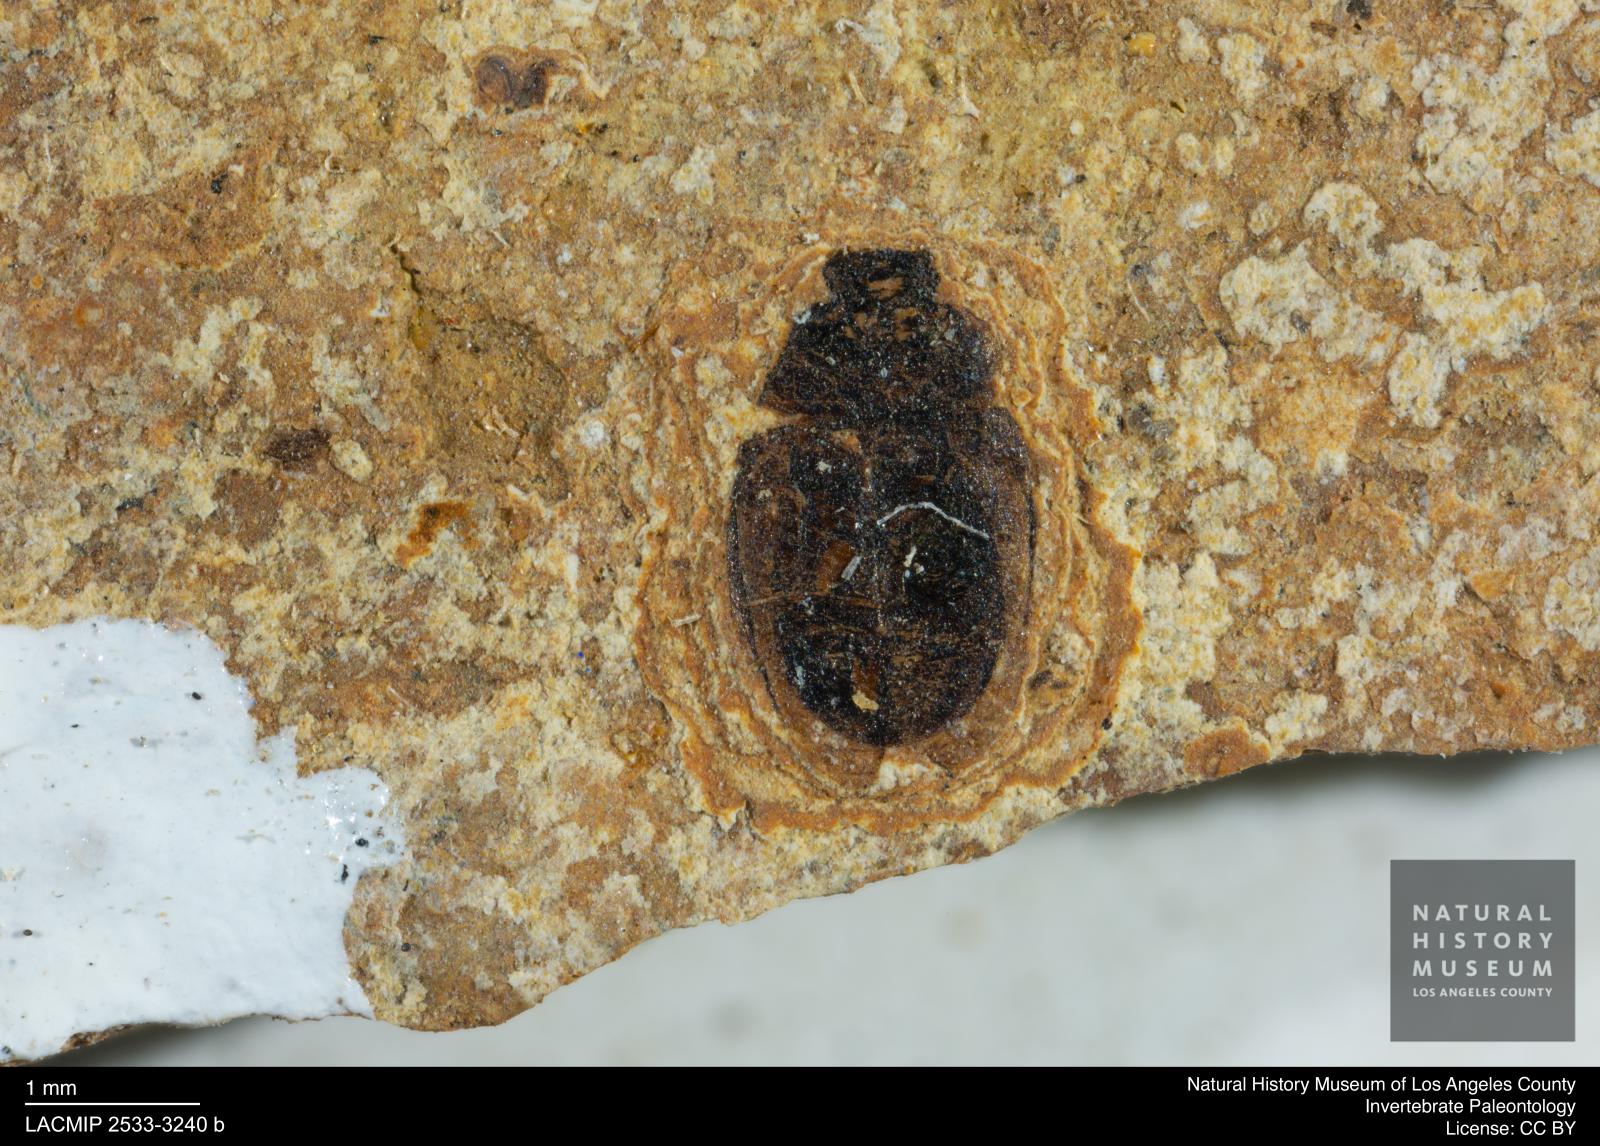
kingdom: Animalia
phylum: Arthropoda
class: Insecta
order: Coleoptera
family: Hydrophilidae
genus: Paracymus
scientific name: Paracymus excitatus
